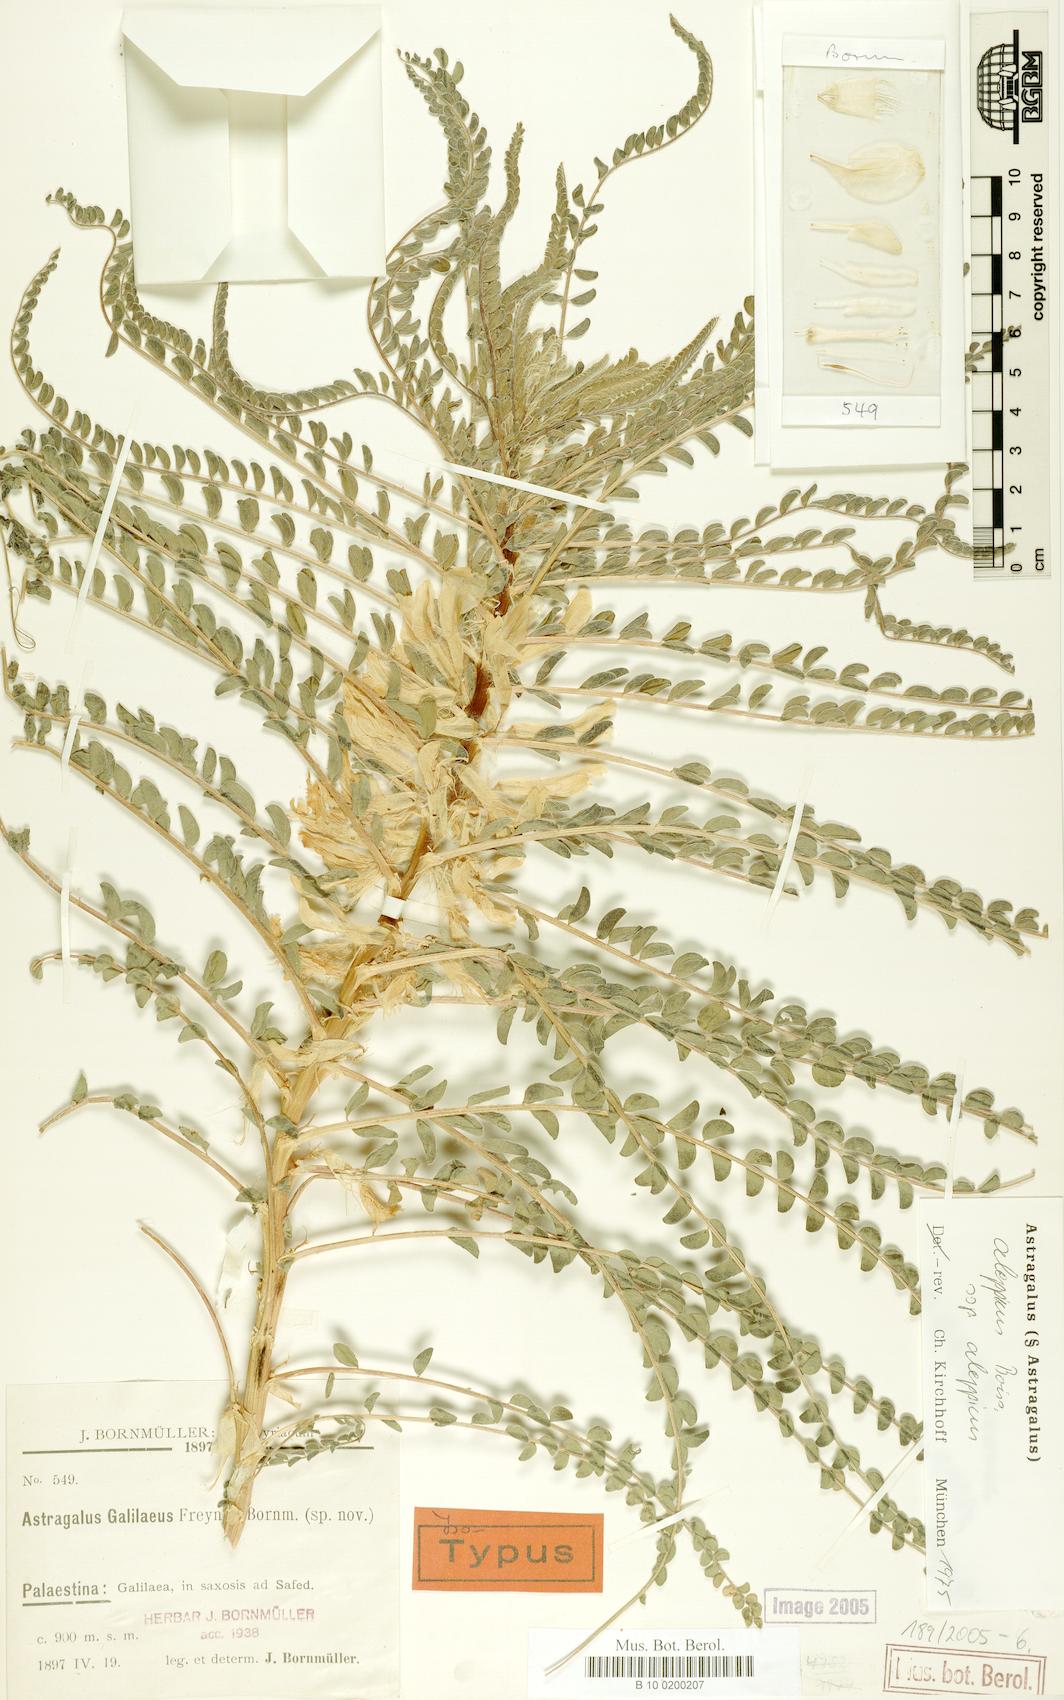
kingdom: Plantae
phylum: Tracheophyta
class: Magnoliopsida
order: Fabales
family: Fabaceae
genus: Astragalus
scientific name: Astragalus aleppicus
